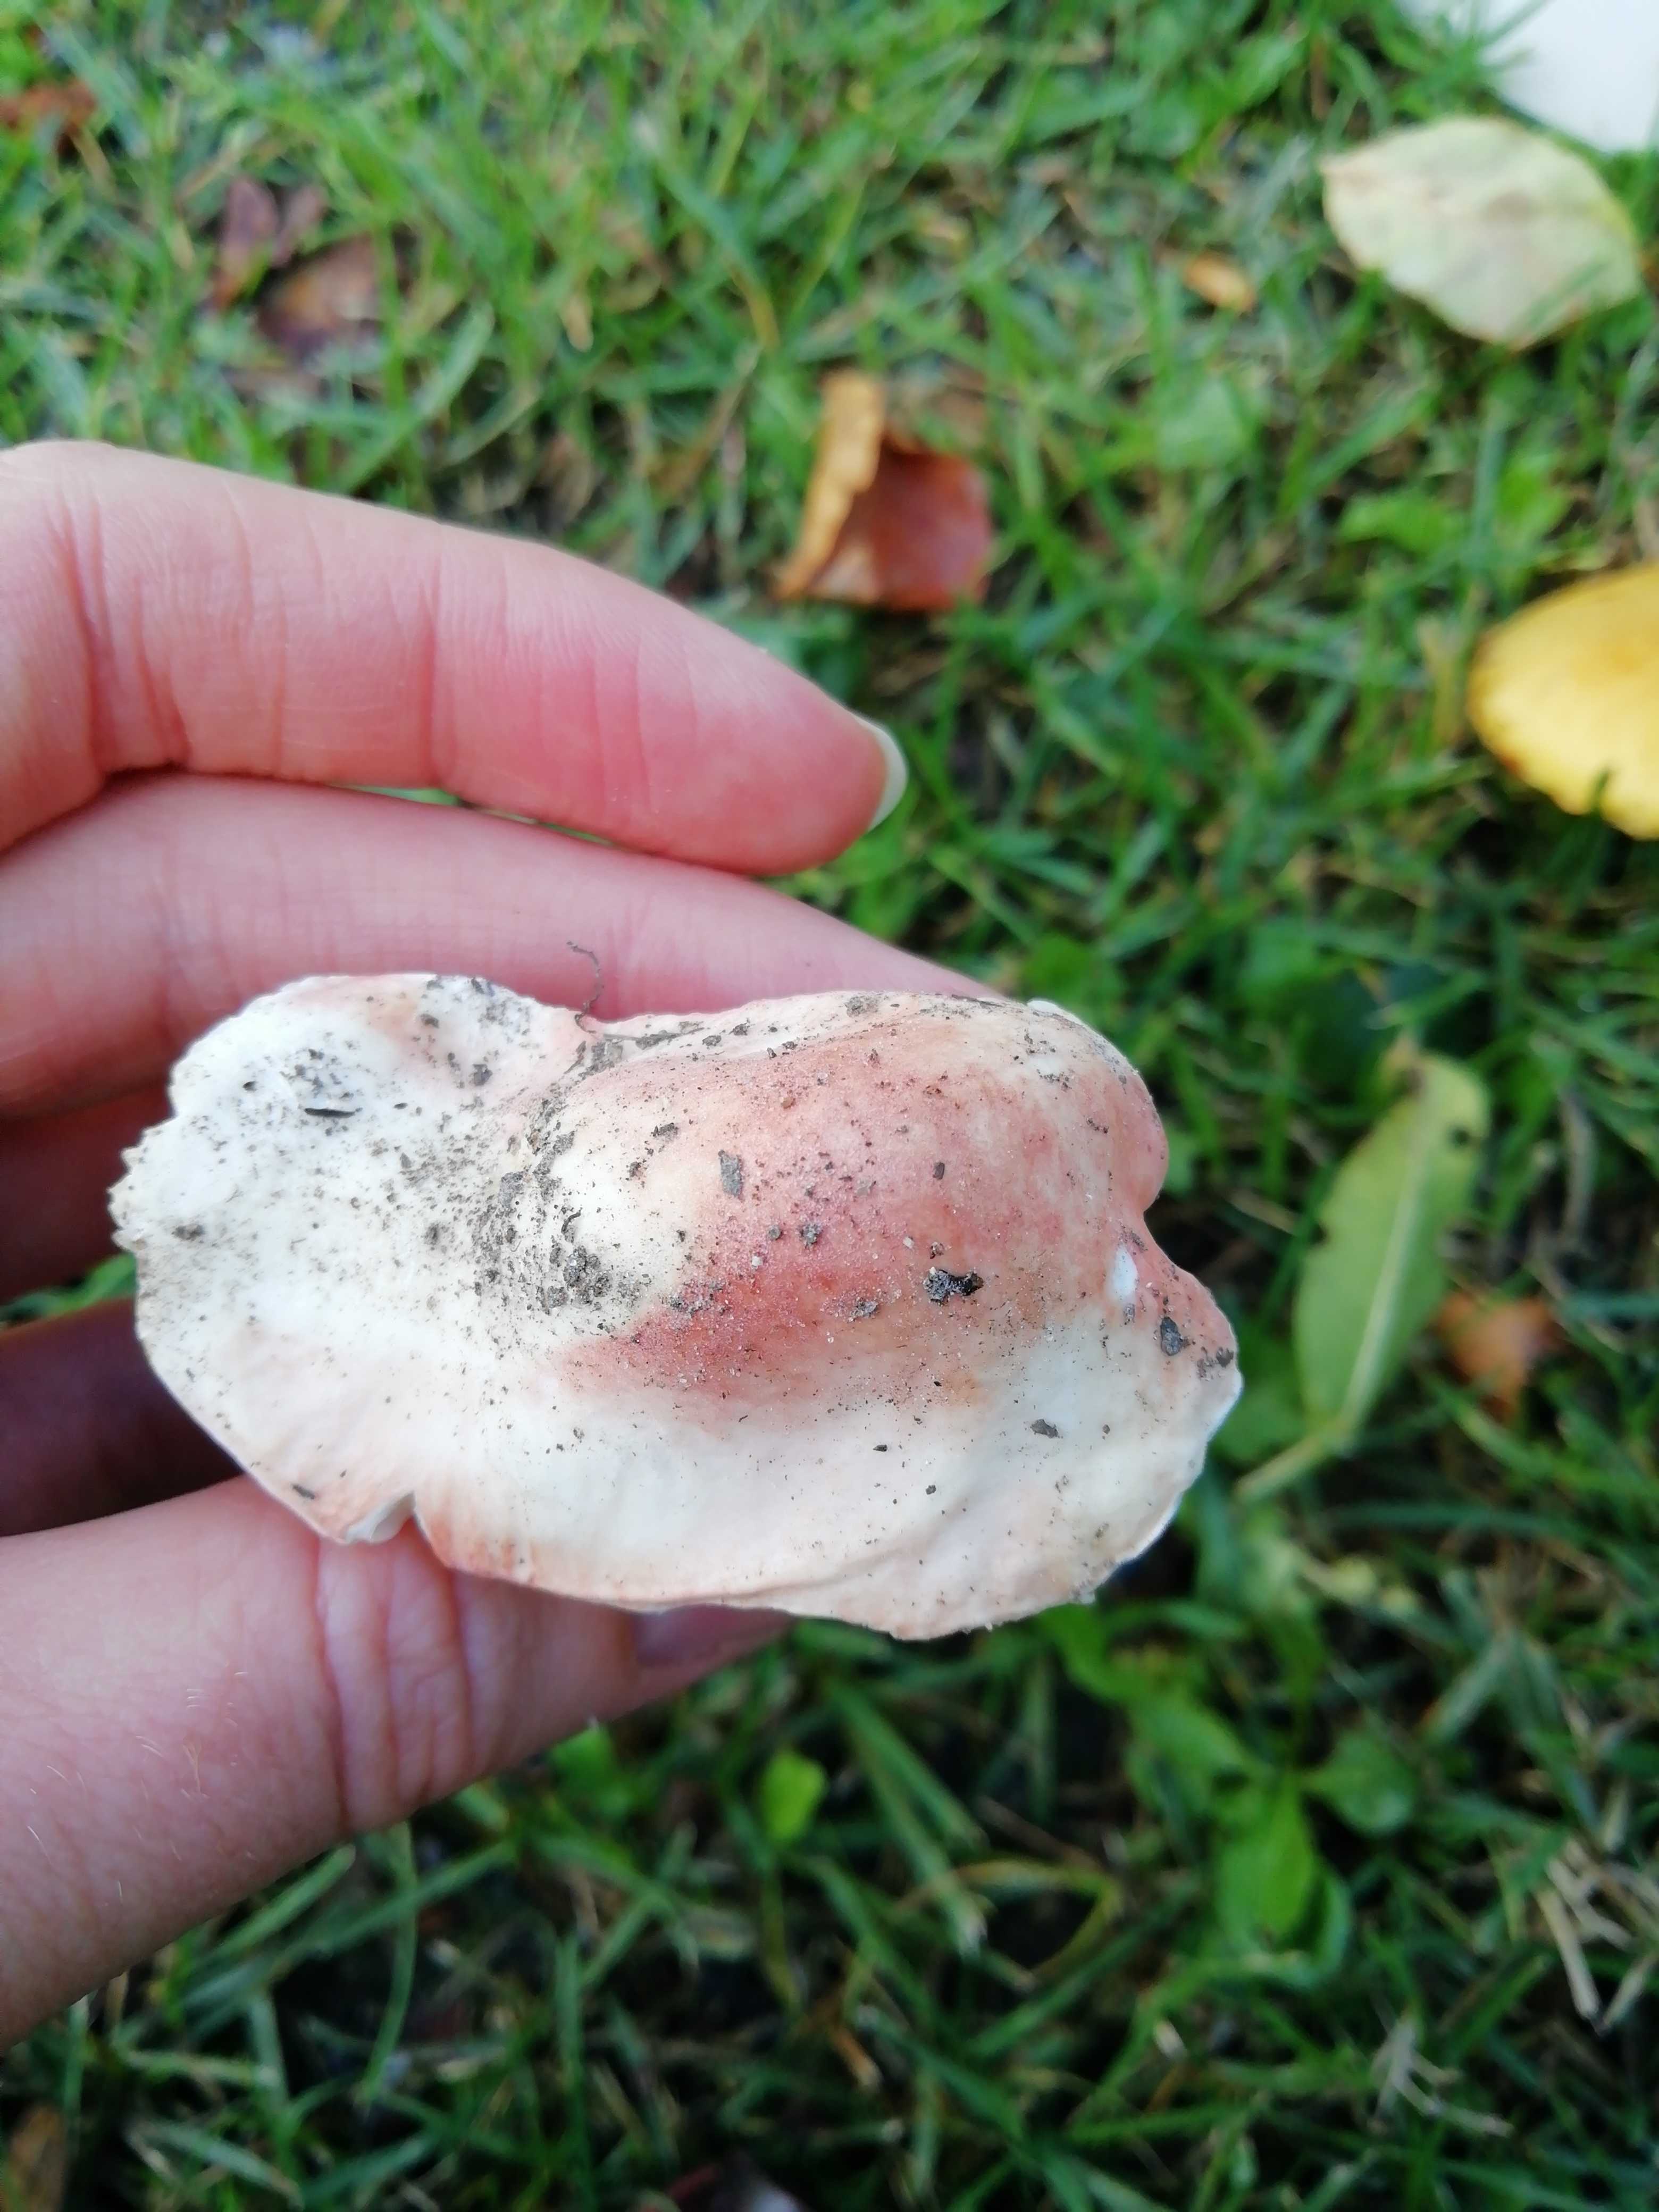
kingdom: Fungi
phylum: Basidiomycota
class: Agaricomycetes
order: Russulales
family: Russulaceae
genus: Russula
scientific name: Russula
